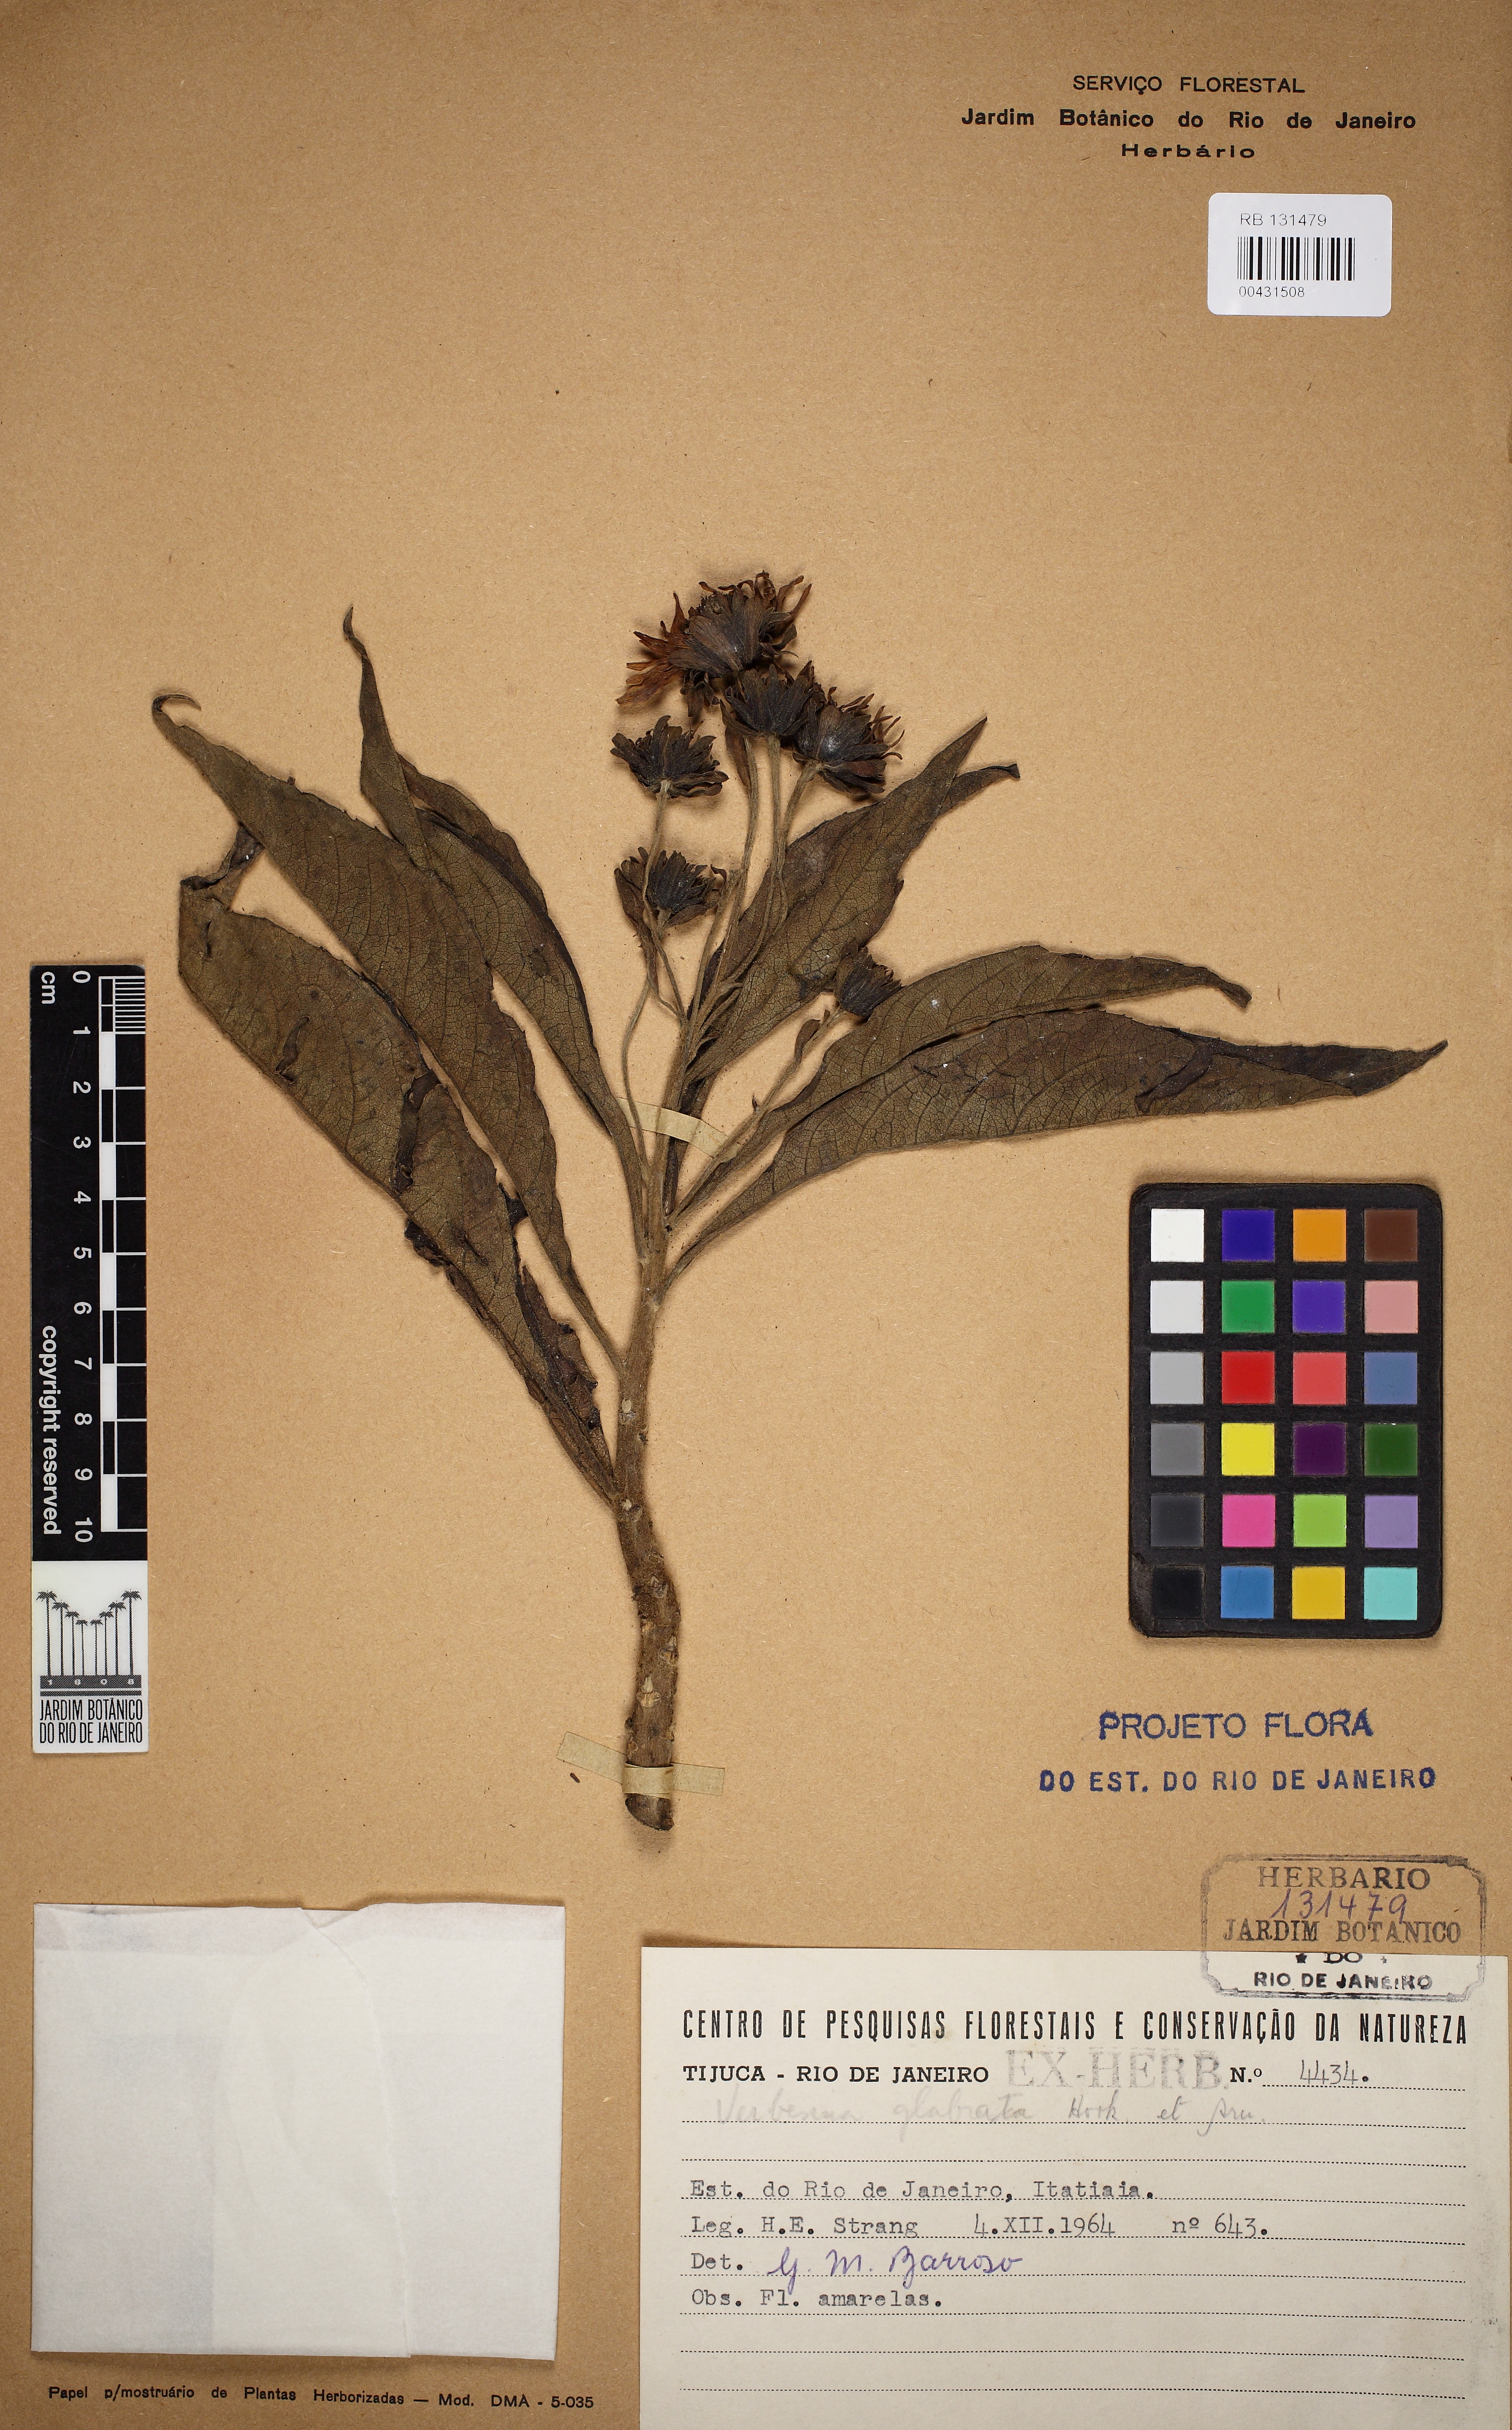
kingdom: Plantae
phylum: Tracheophyta
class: Magnoliopsida
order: Asterales
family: Asteraceae
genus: Verbesina
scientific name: Verbesina glabrata
